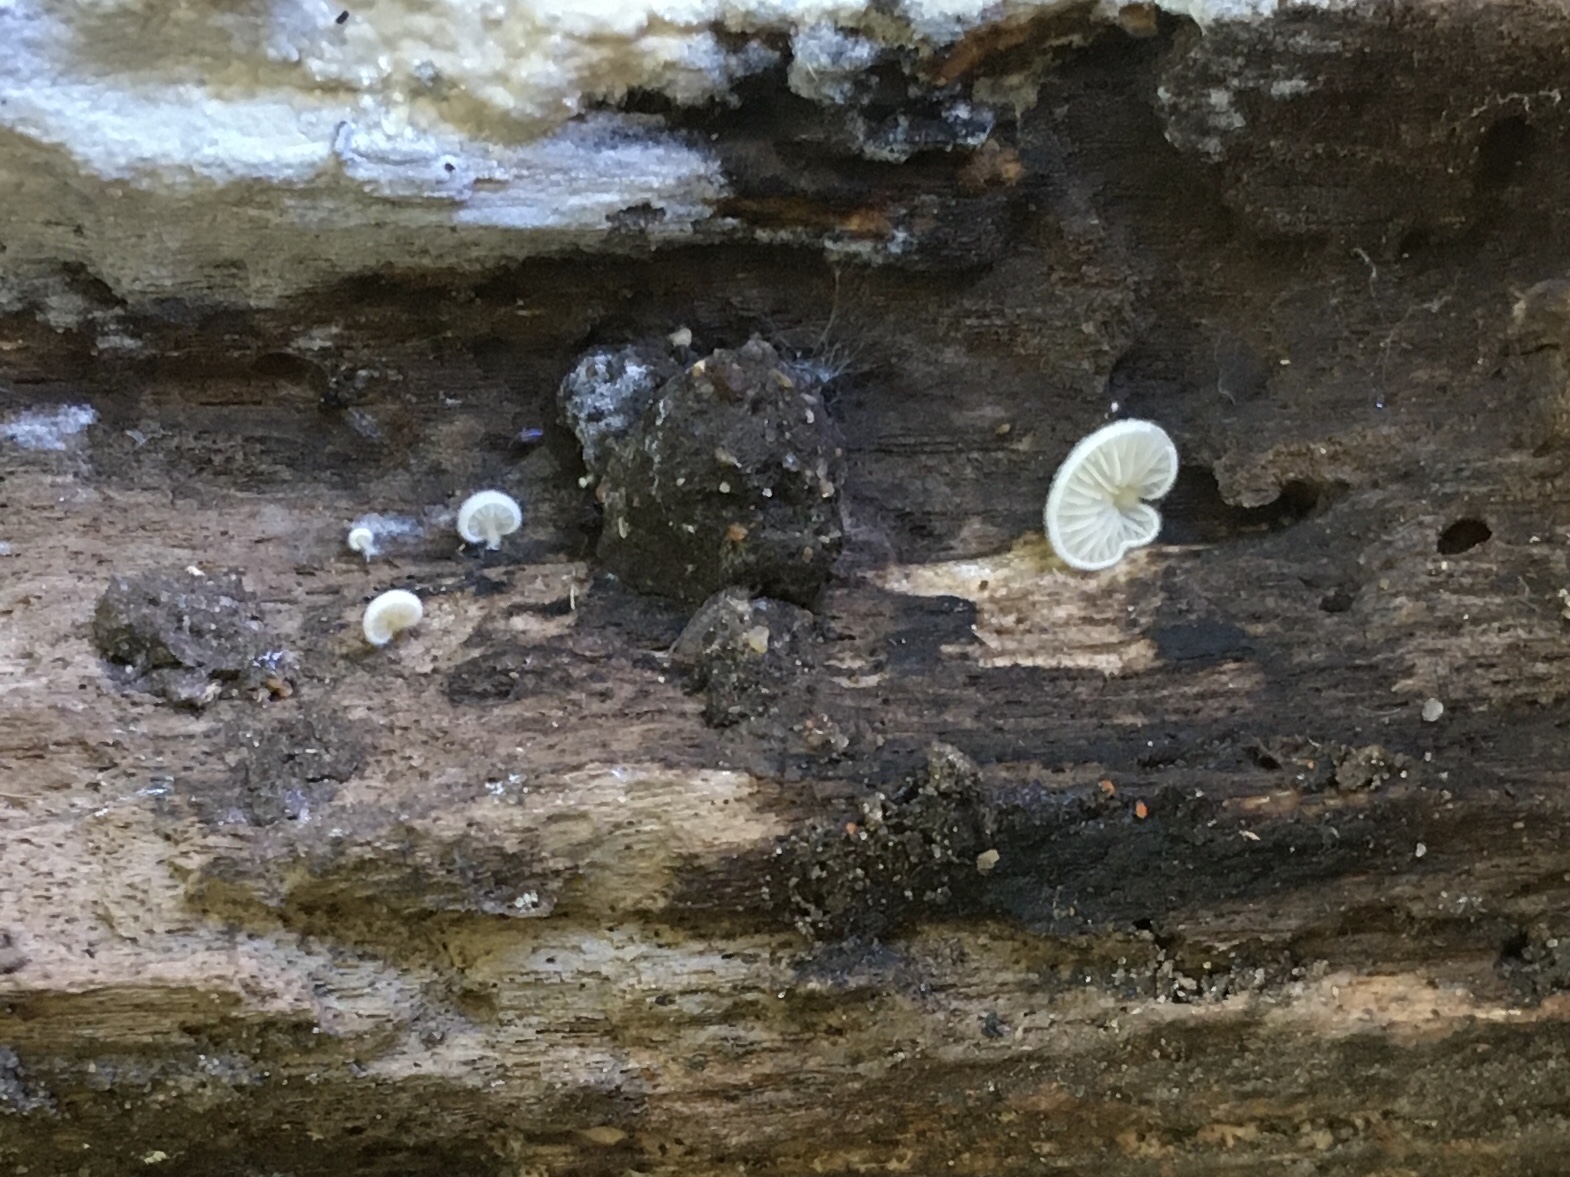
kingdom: Fungi
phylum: Basidiomycota
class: Agaricomycetes
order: Agaricales
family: Entolomataceae
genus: Clitopilus
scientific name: Clitopilus hobsonii
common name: Miller's oysterling
